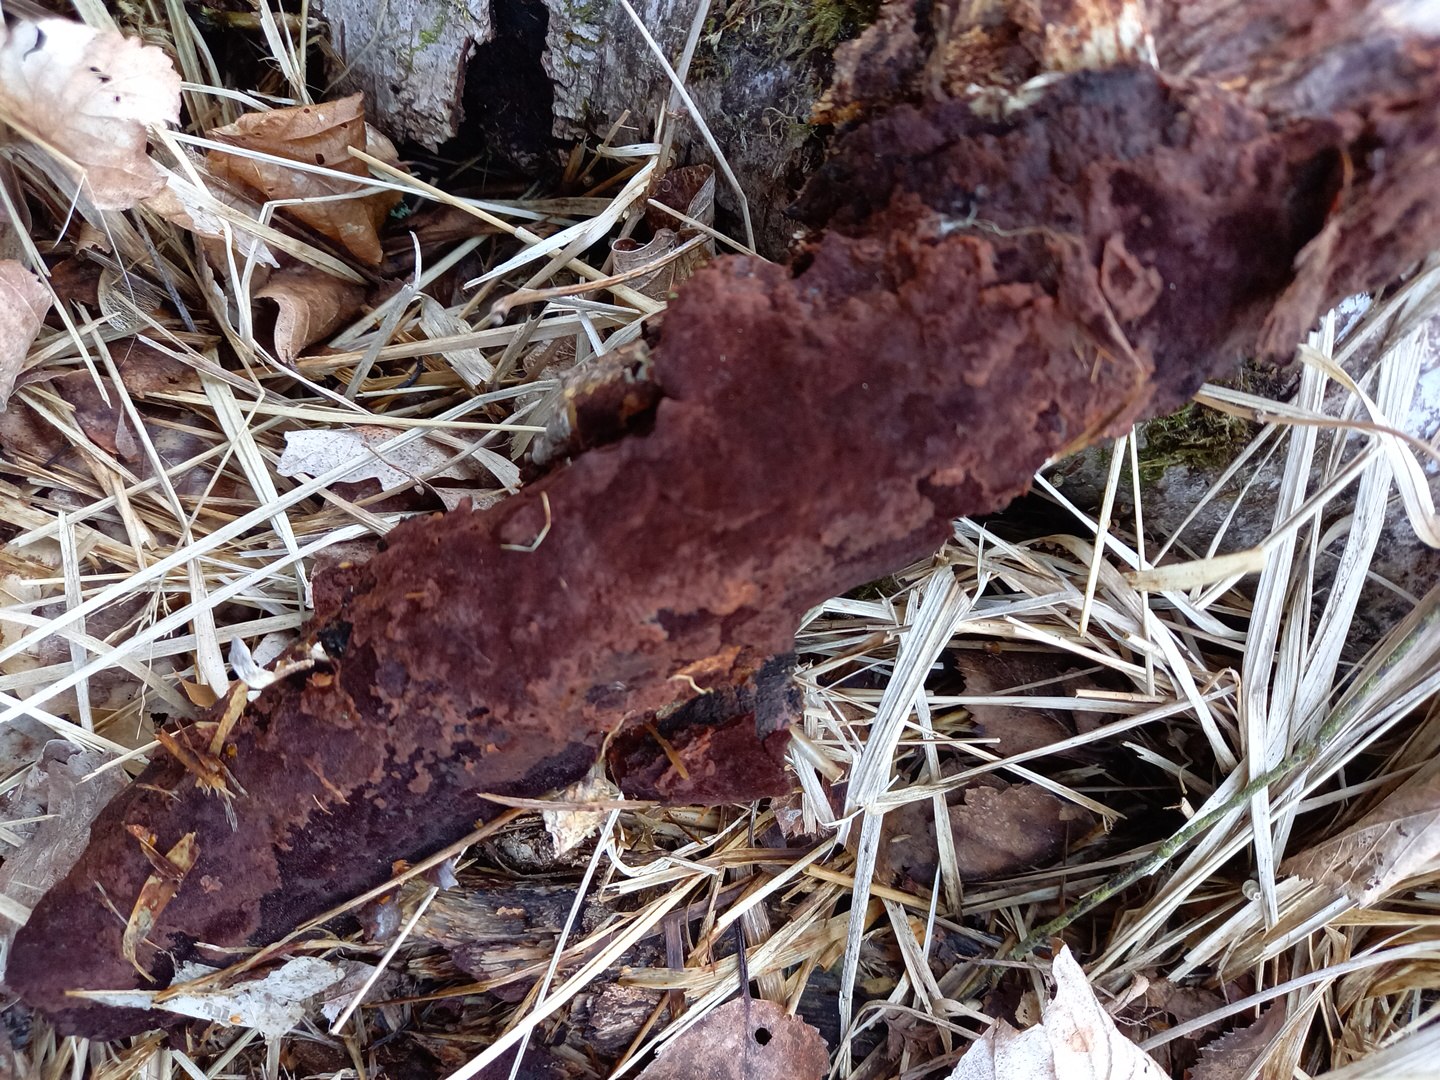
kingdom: Fungi
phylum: Basidiomycota
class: Agaricomycetes
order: Hymenochaetales
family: Hymenochaetaceae
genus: Fuscoporia
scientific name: Fuscoporia
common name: Ildporesvamp
